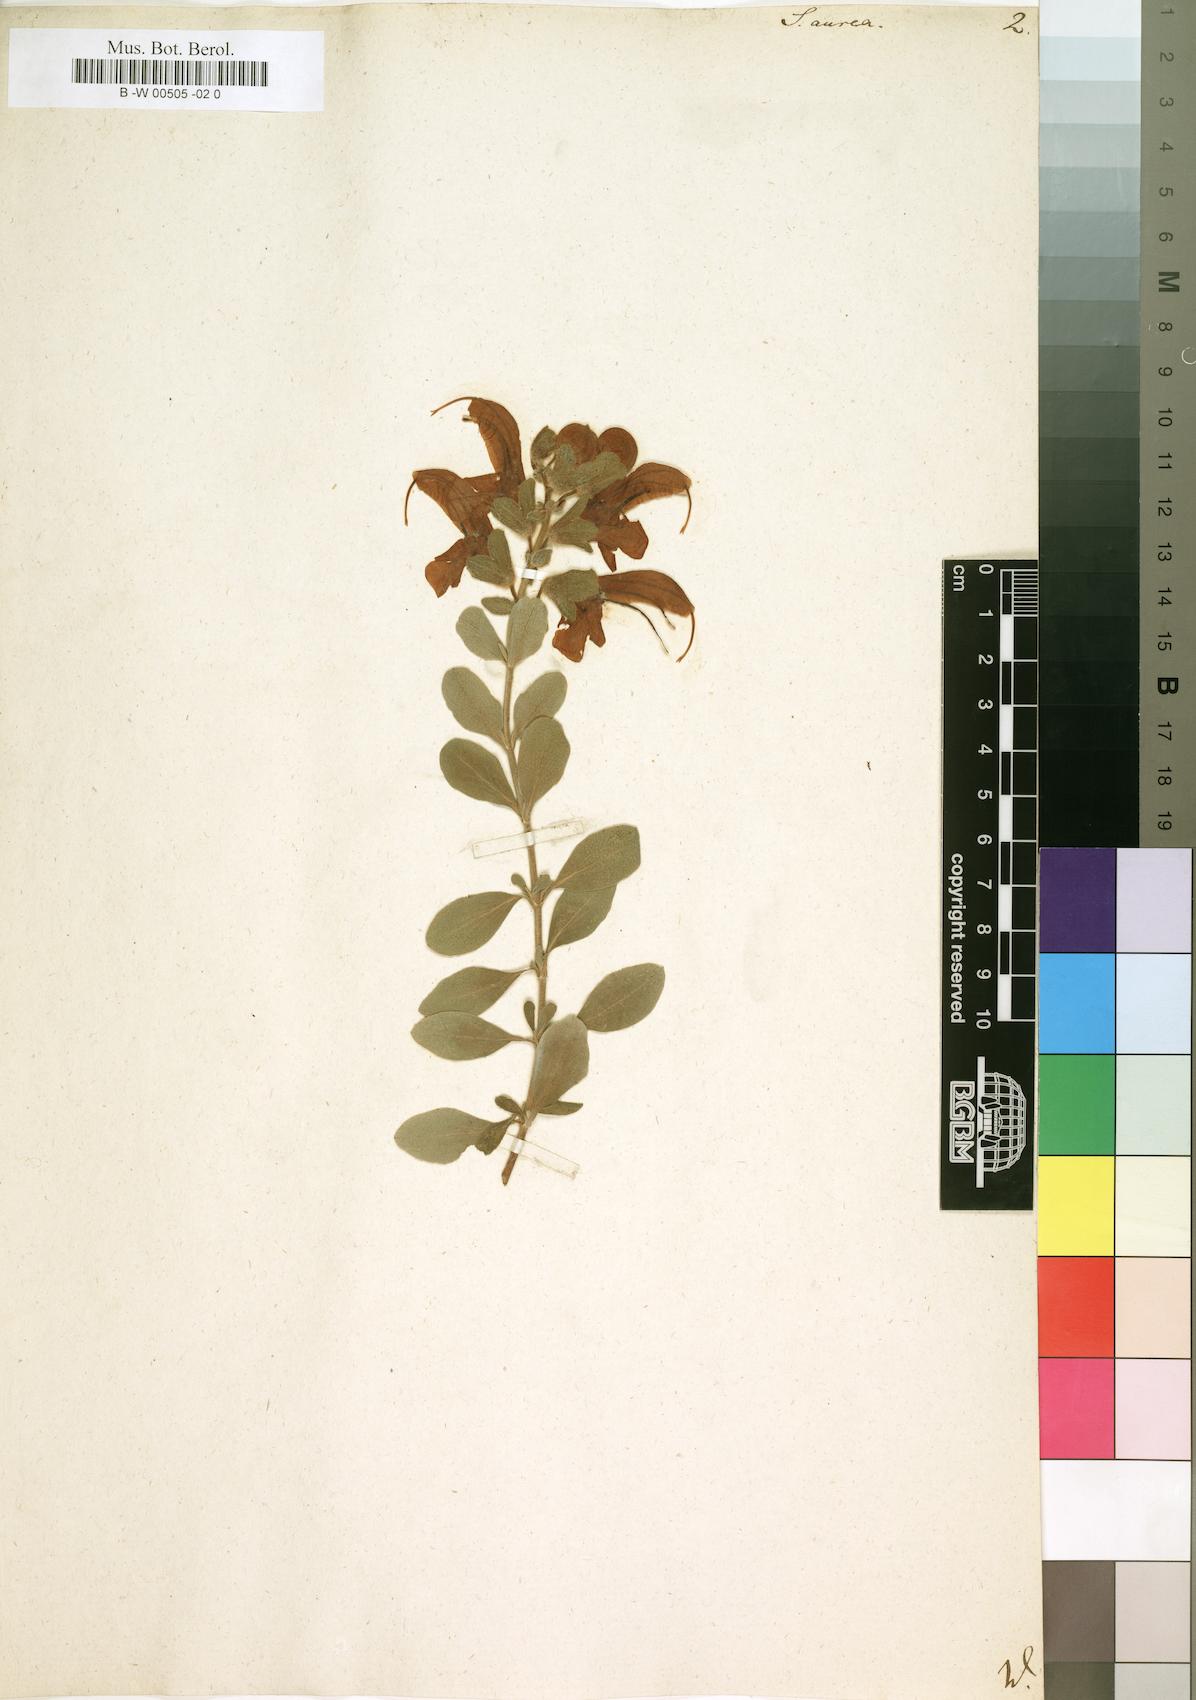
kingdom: Plantae
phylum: Tracheophyta
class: Magnoliopsida
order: Lamiales
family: Lamiaceae
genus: Salvia
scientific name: Salvia aurea
